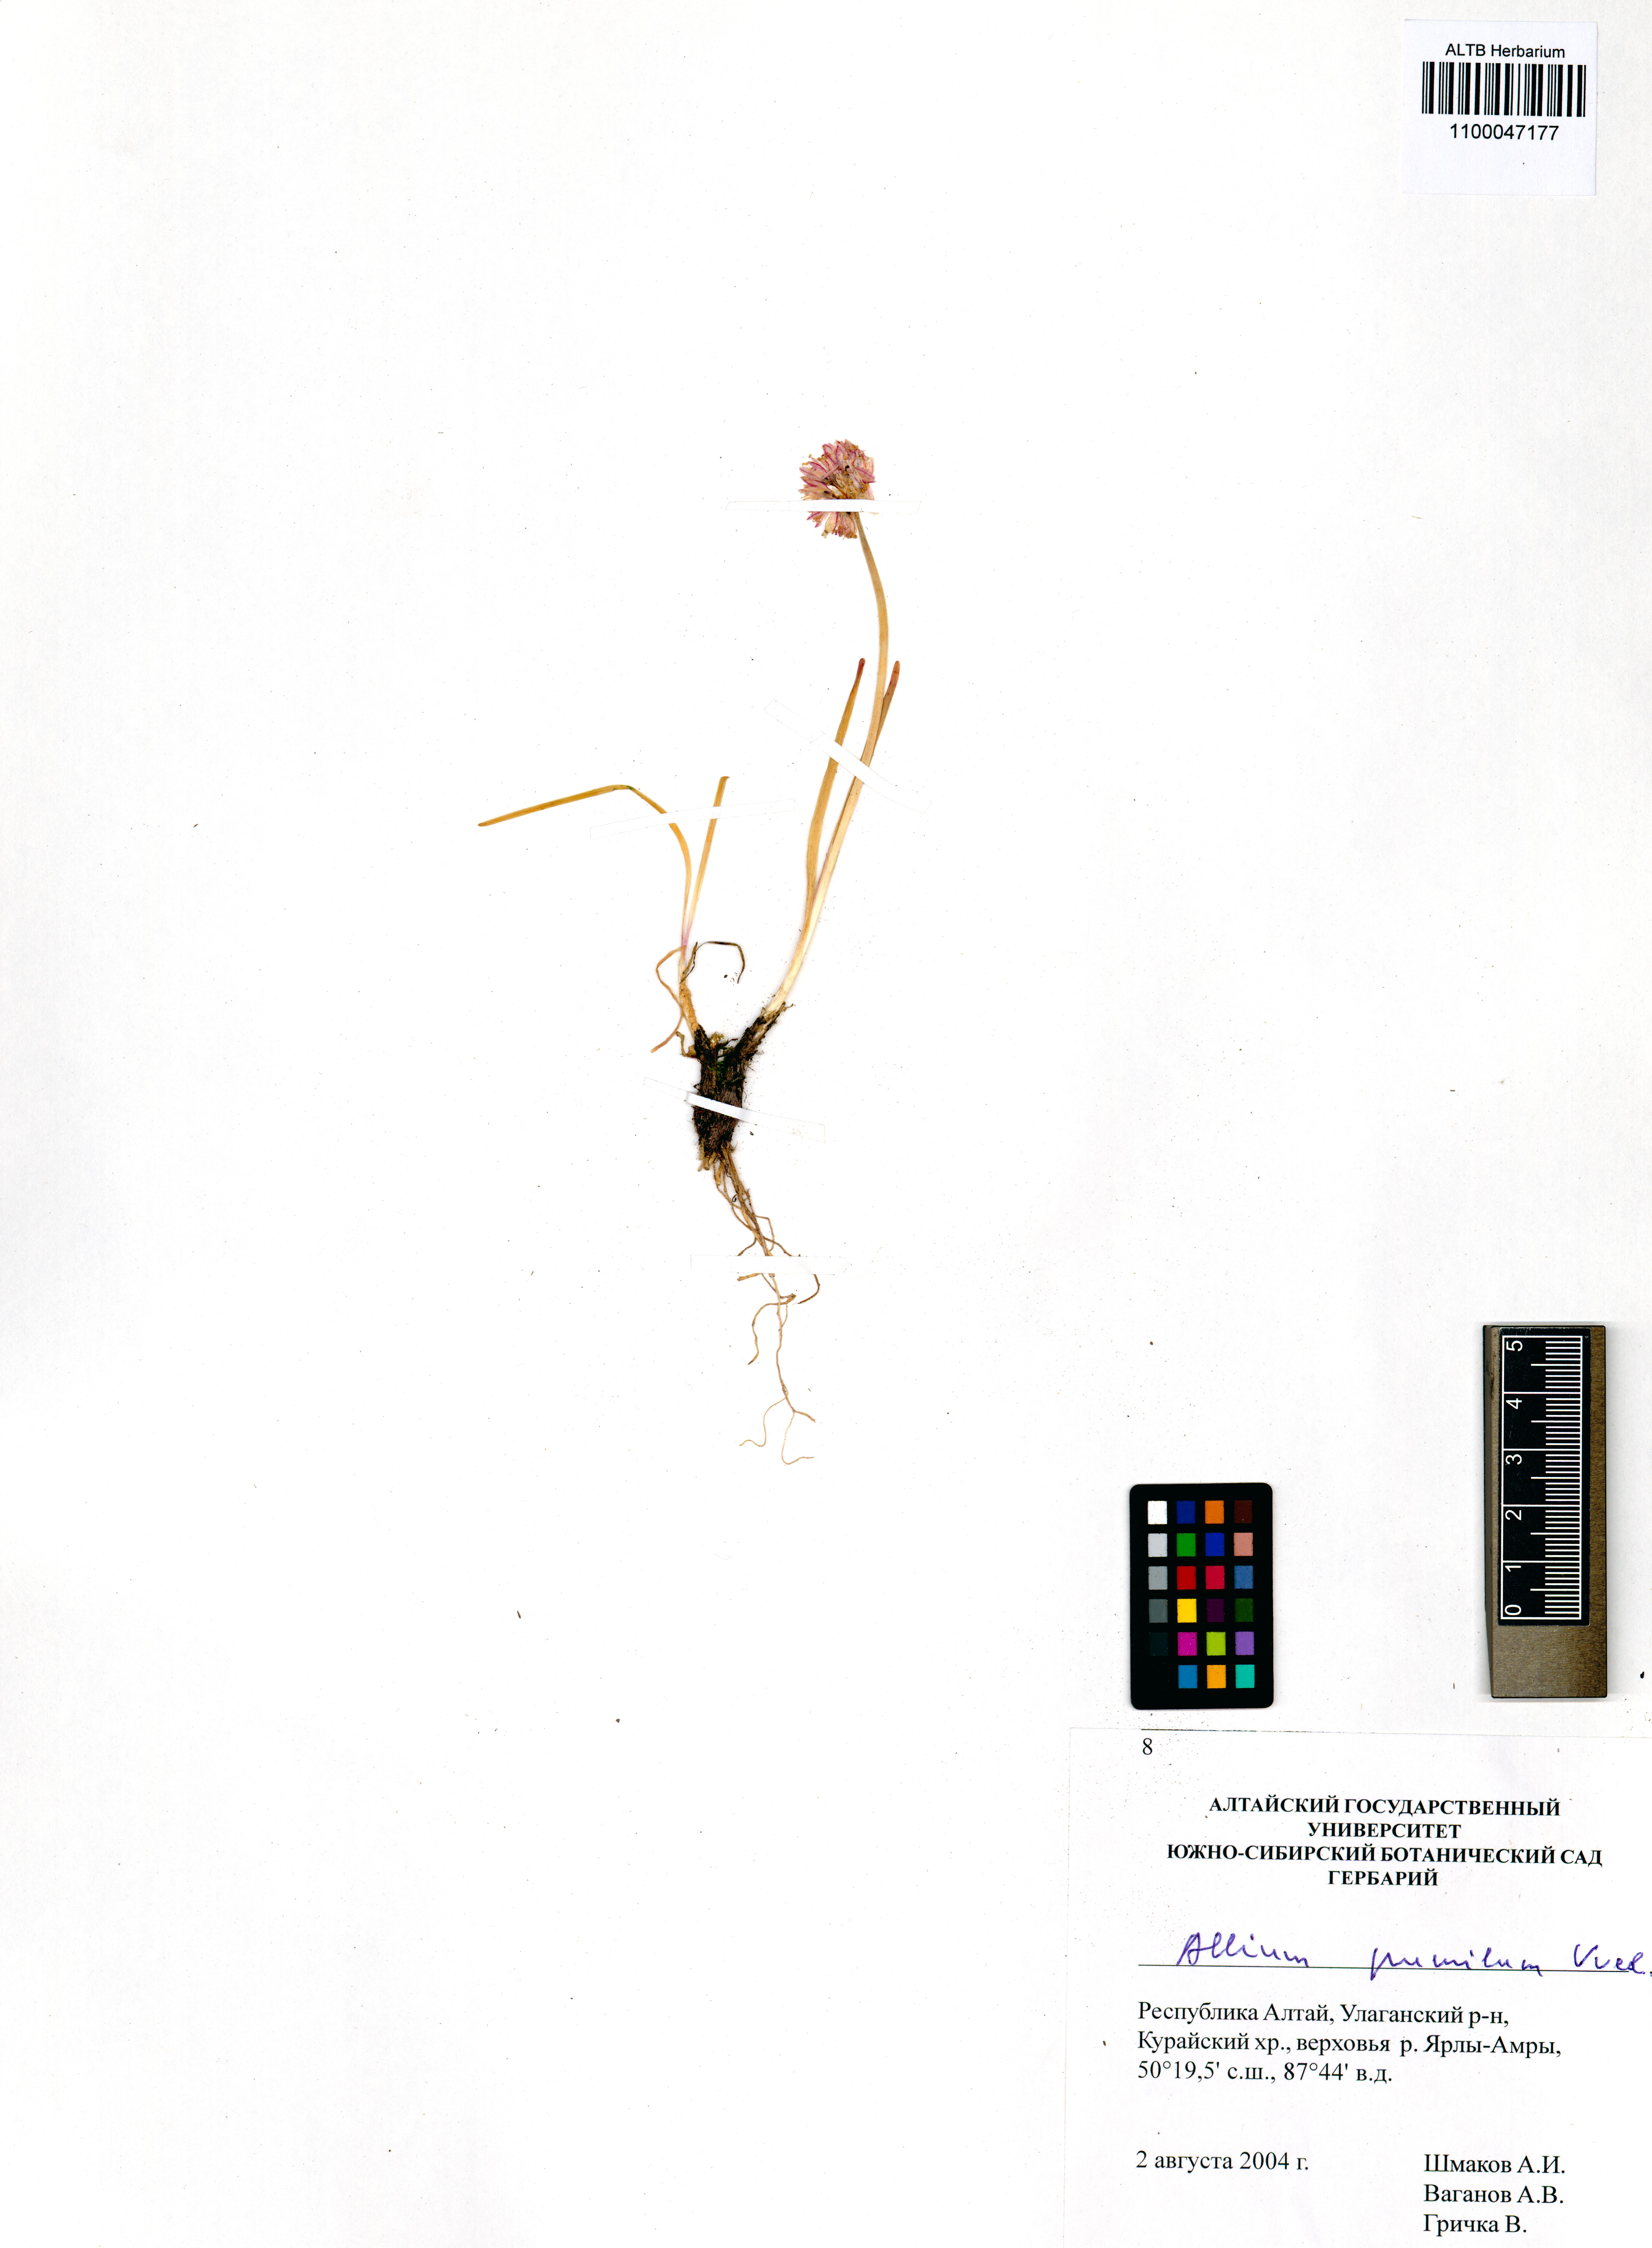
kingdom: Plantae
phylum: Tracheophyta
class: Liliopsida
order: Asparagales
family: Amaryllidaceae
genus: Allium
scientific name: Allium pumilum
